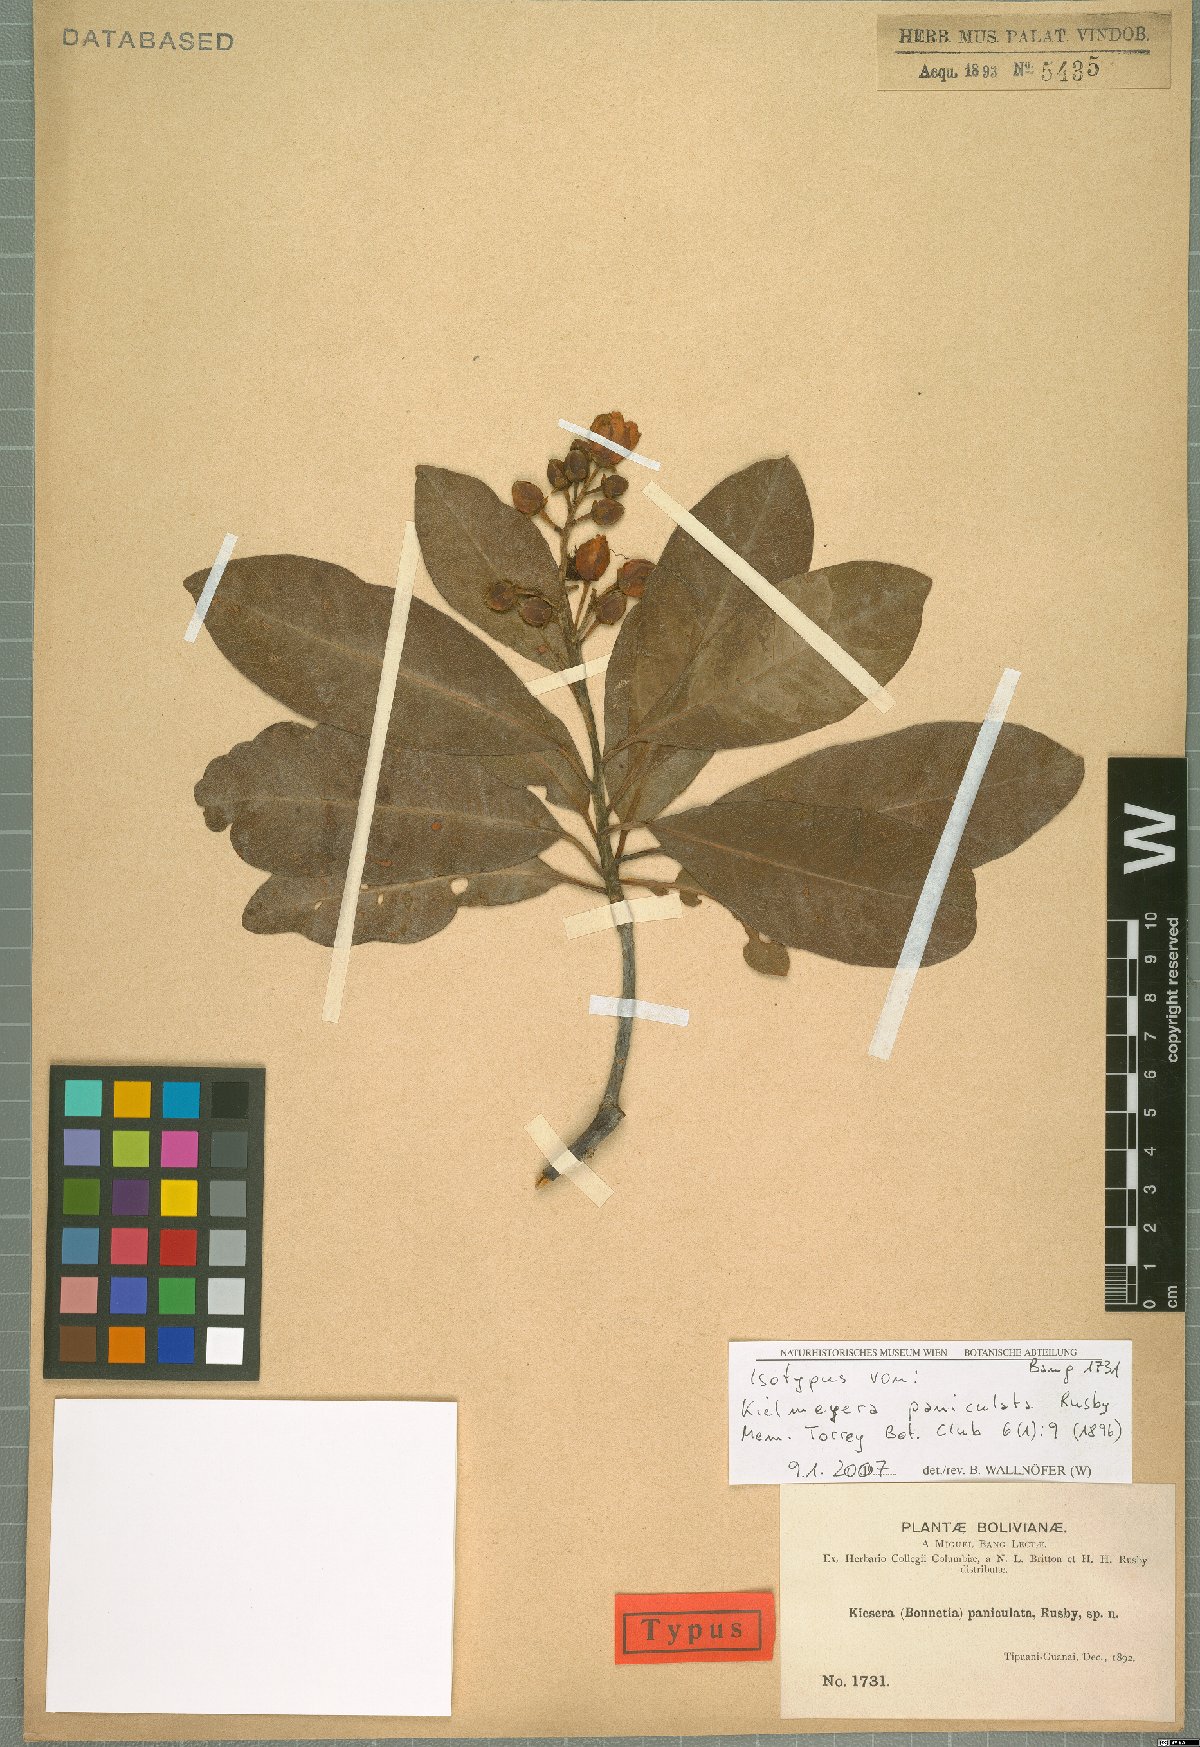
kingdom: Plantae
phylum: Tracheophyta
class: Magnoliopsida
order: Malpighiales
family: Calophyllaceae
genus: Kielmeyera
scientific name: Kielmeyera paniculata
